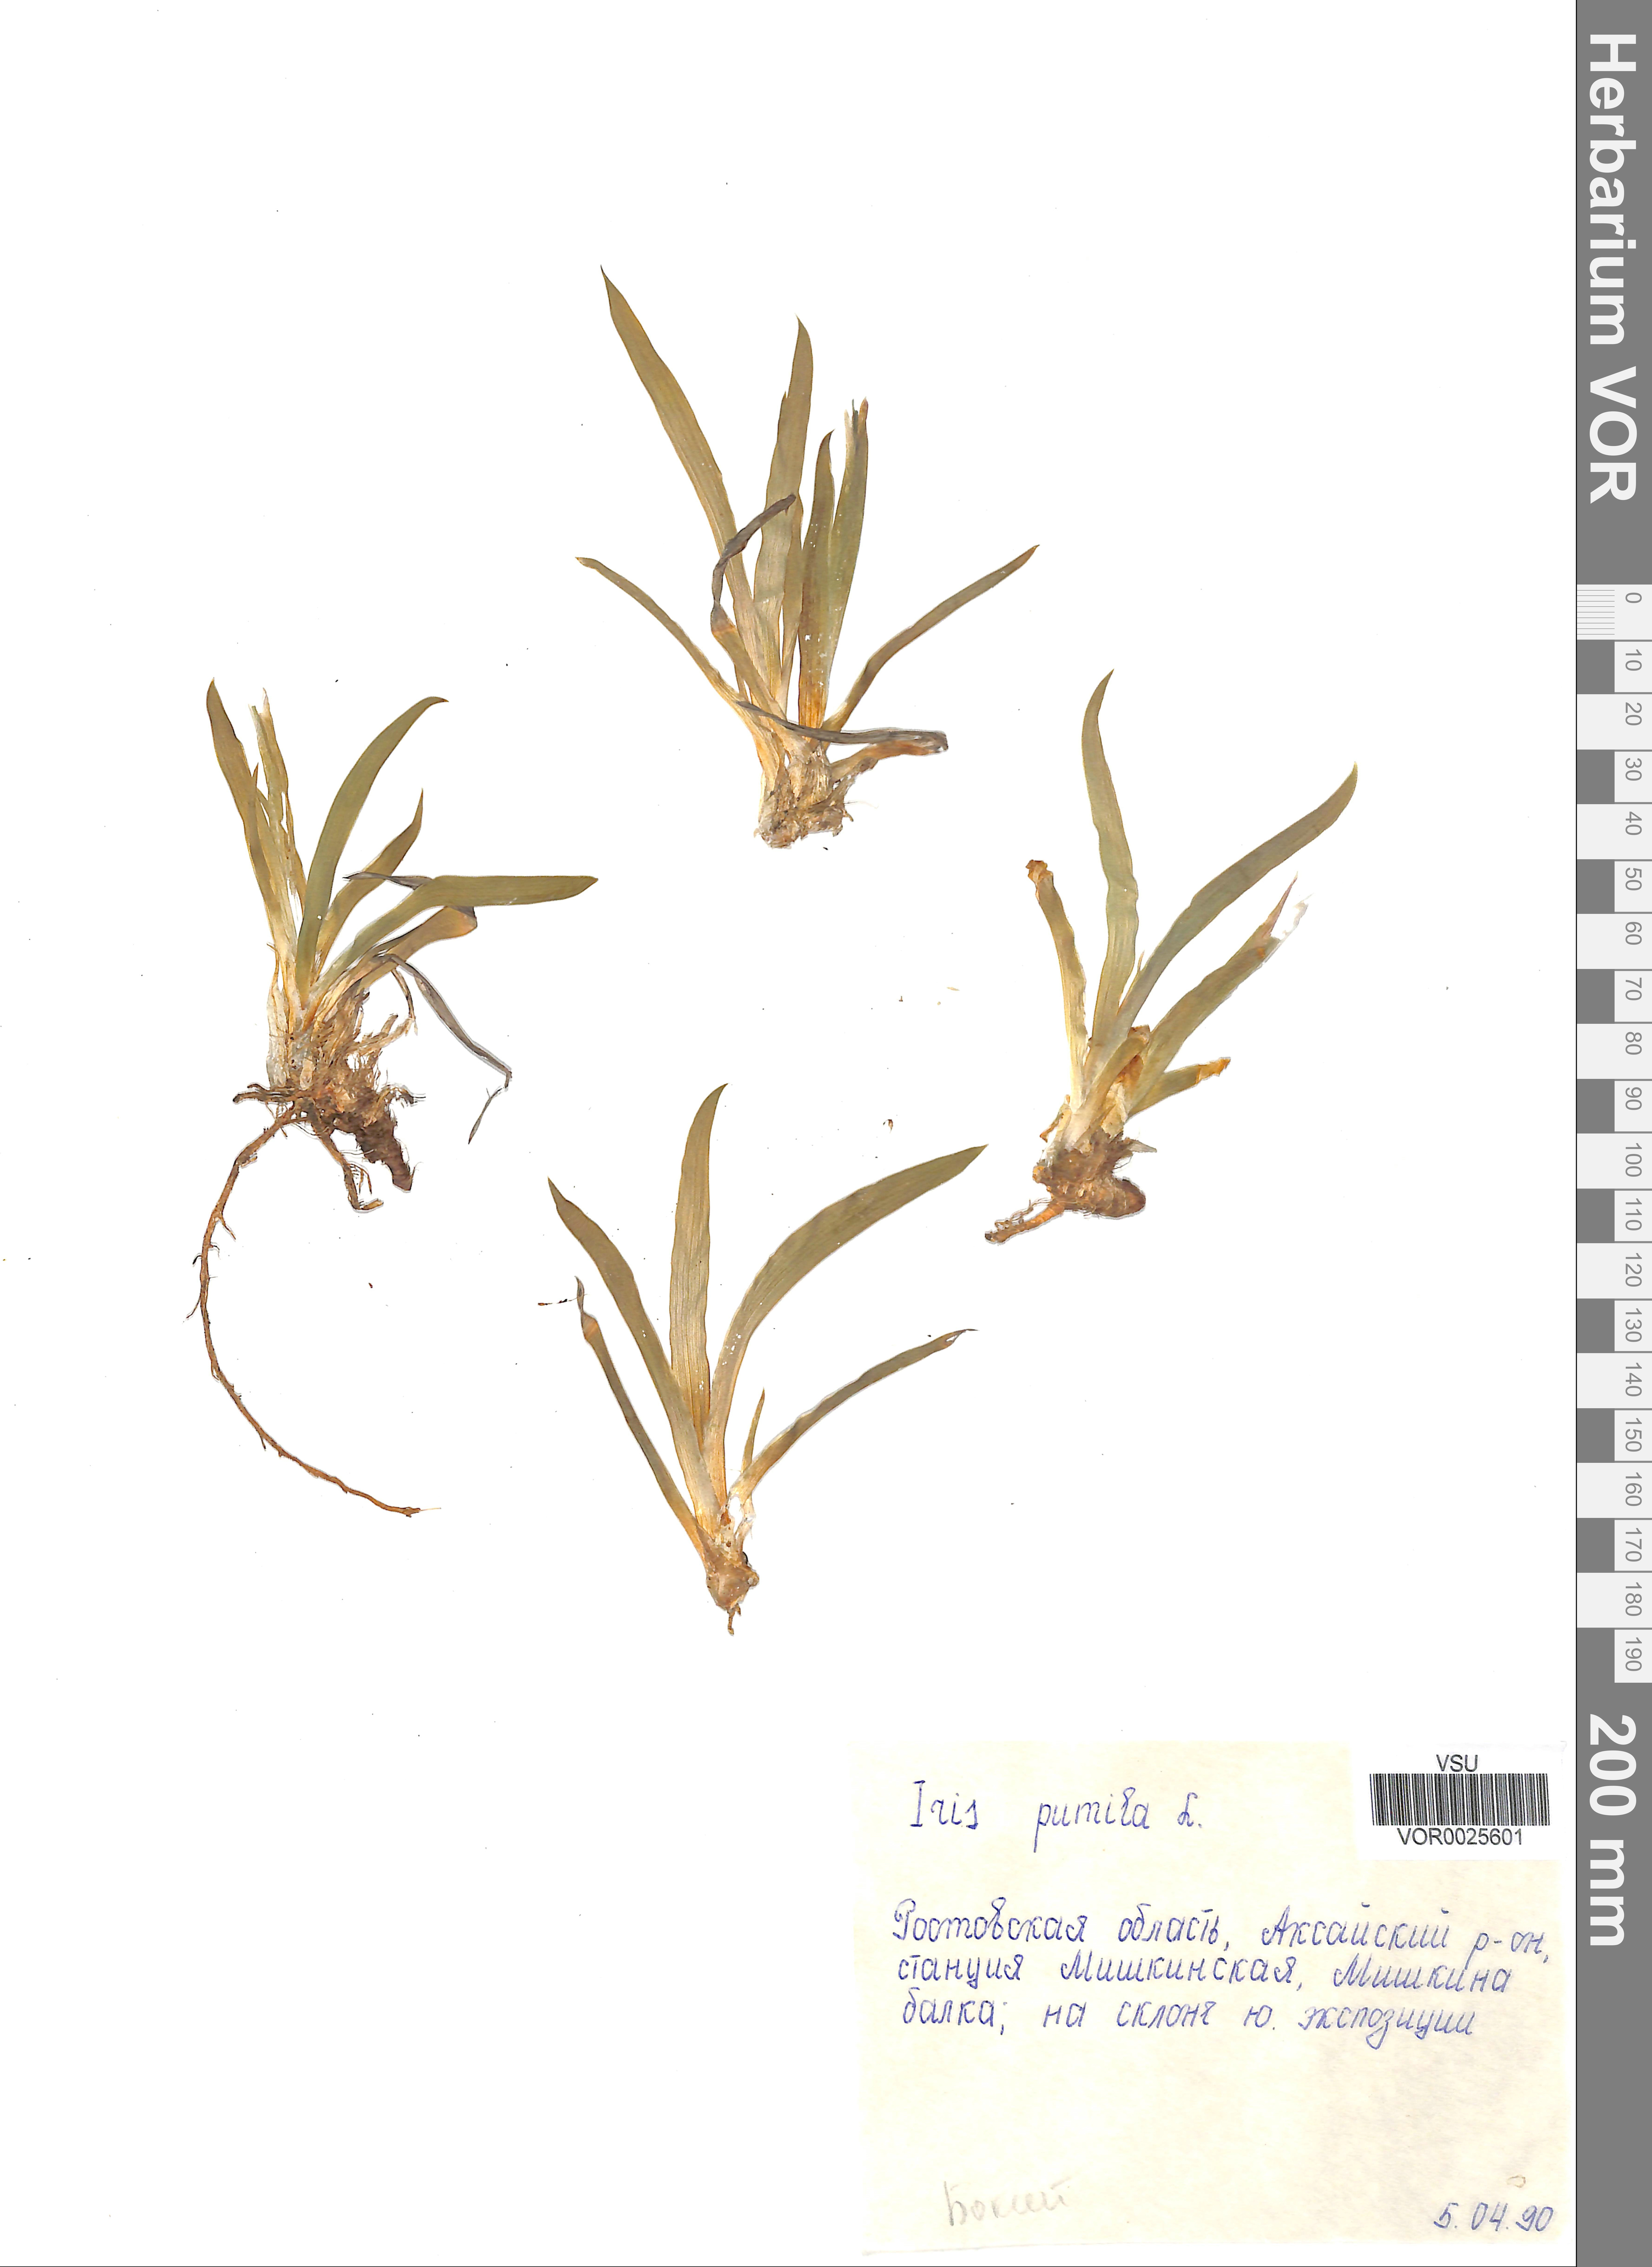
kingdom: Plantae
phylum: Tracheophyta
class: Liliopsida
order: Asparagales
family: Iridaceae
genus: Iris
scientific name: Iris pumila
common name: Dwarf iris
